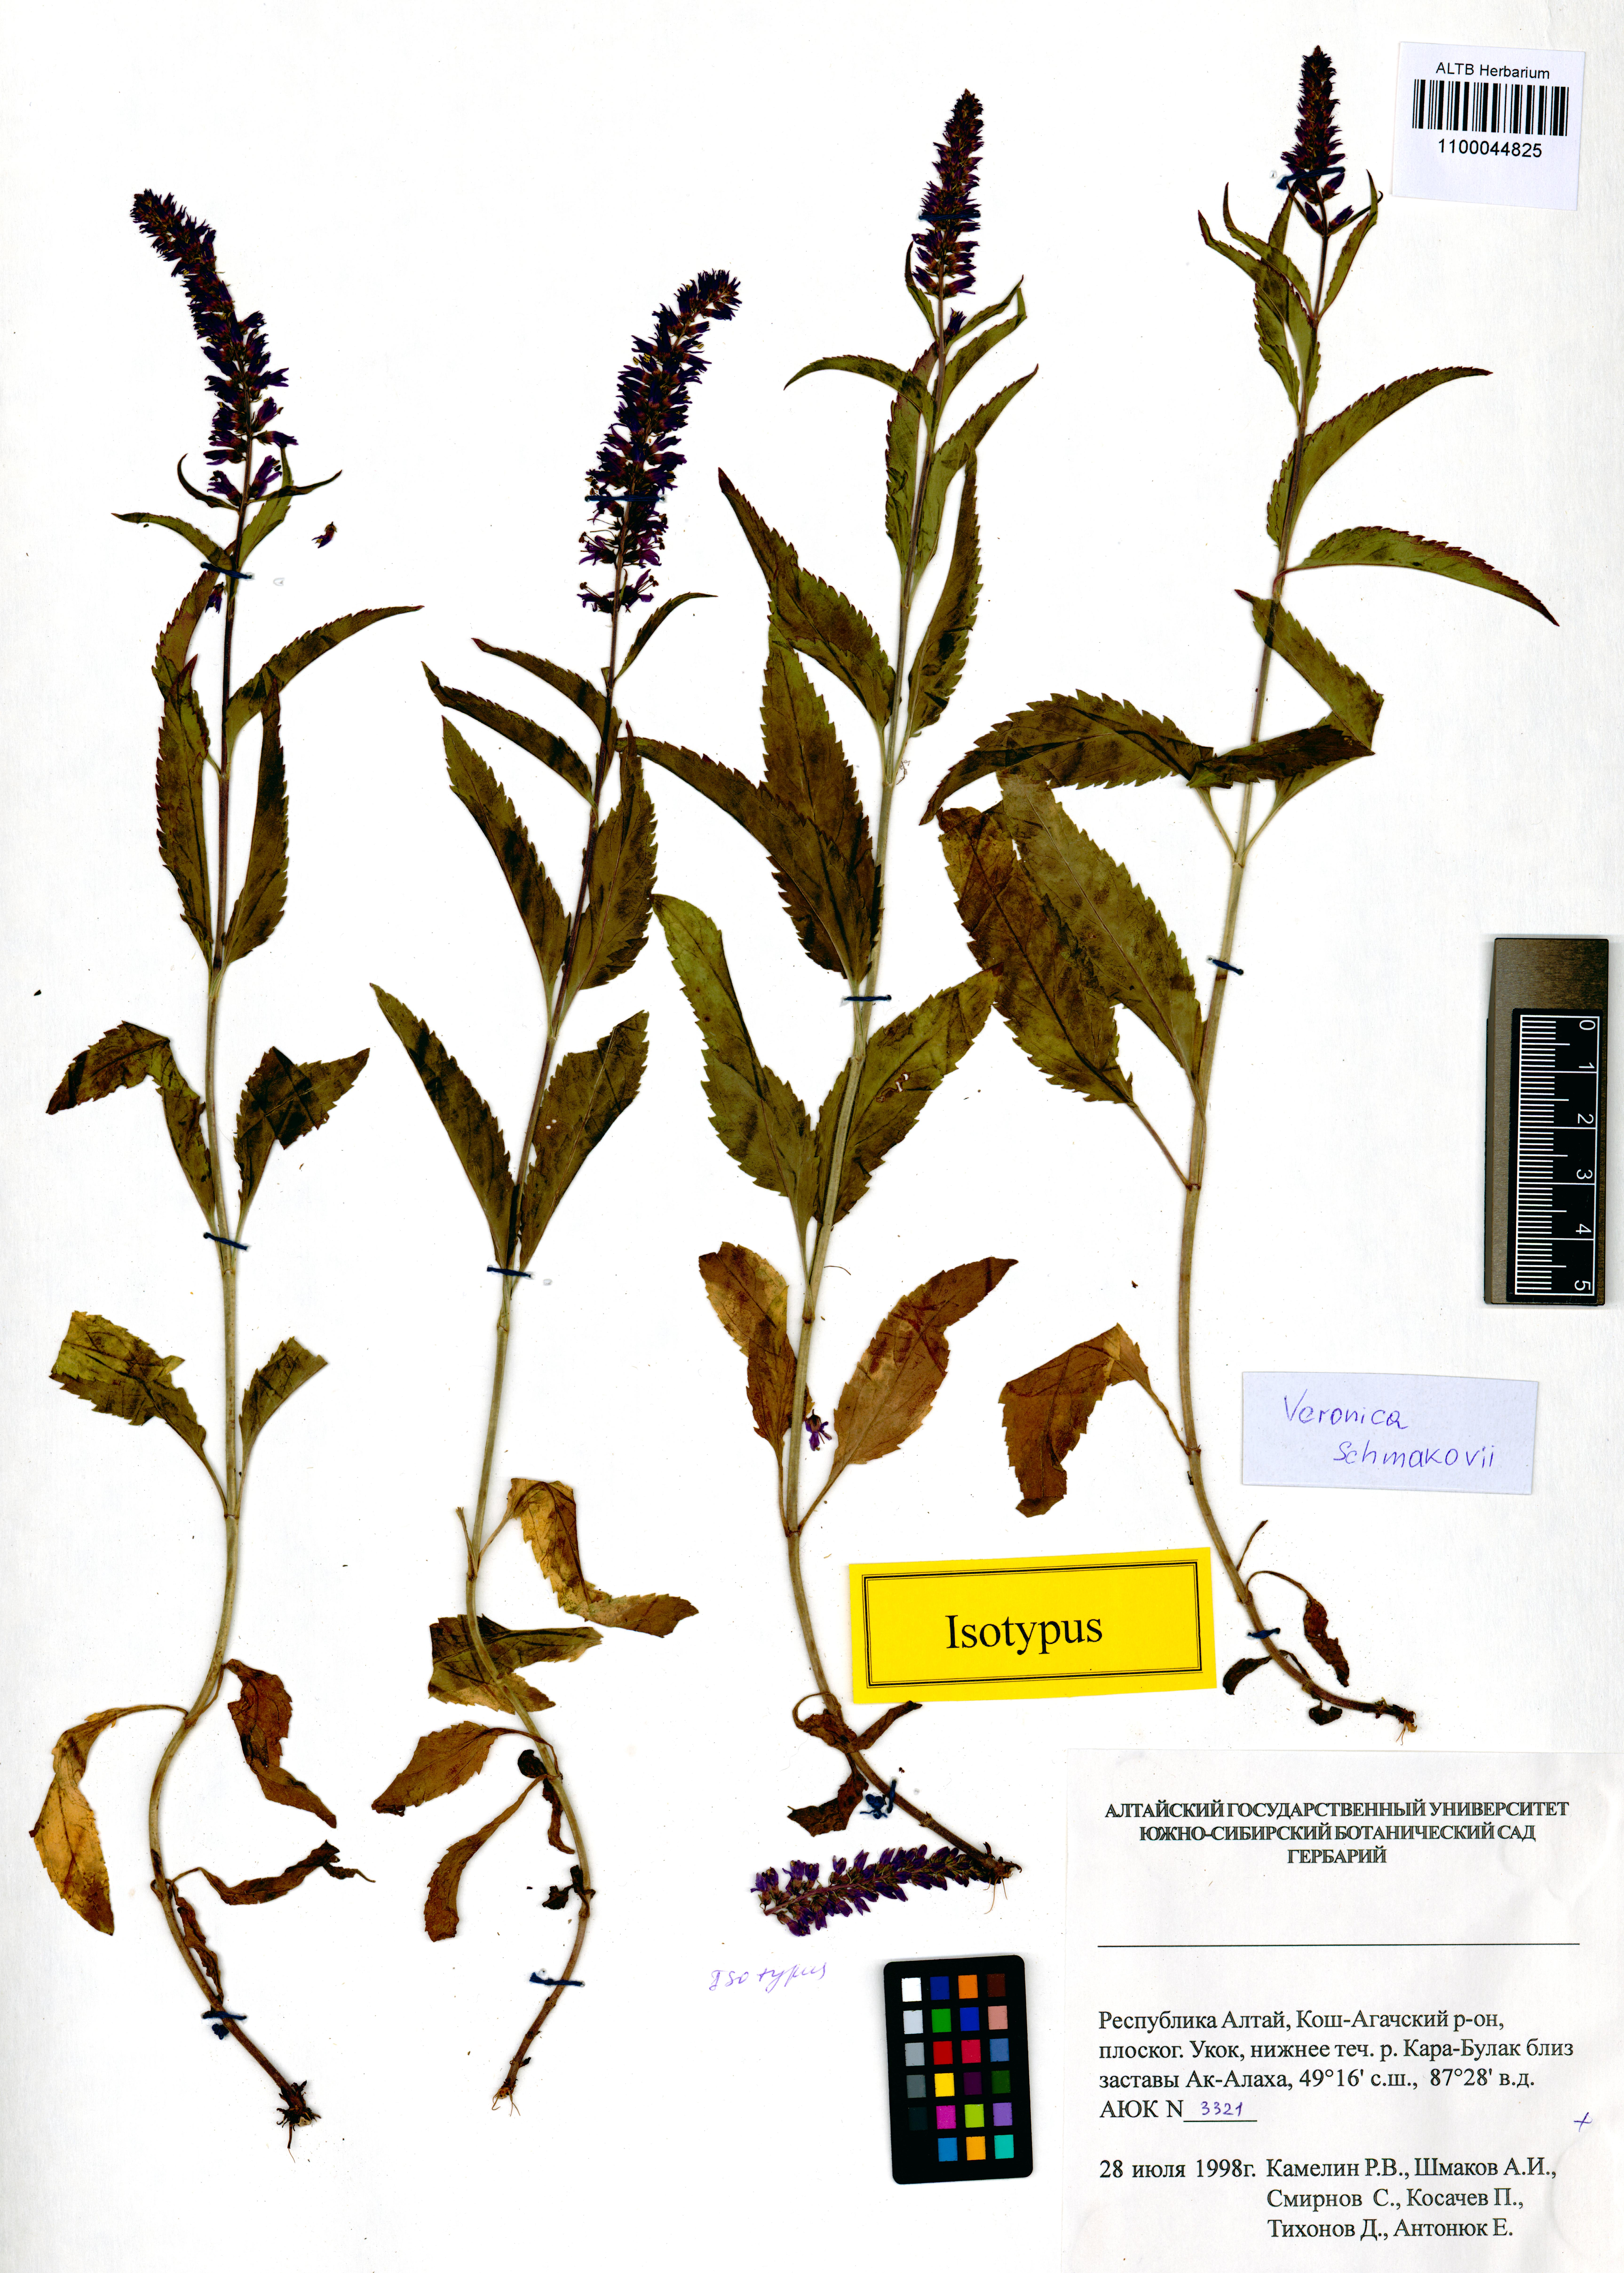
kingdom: Plantae
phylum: Tracheophyta
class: Magnoliopsida
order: Lamiales
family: Plantaginaceae
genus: Veronica
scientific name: Veronica schmakovii
